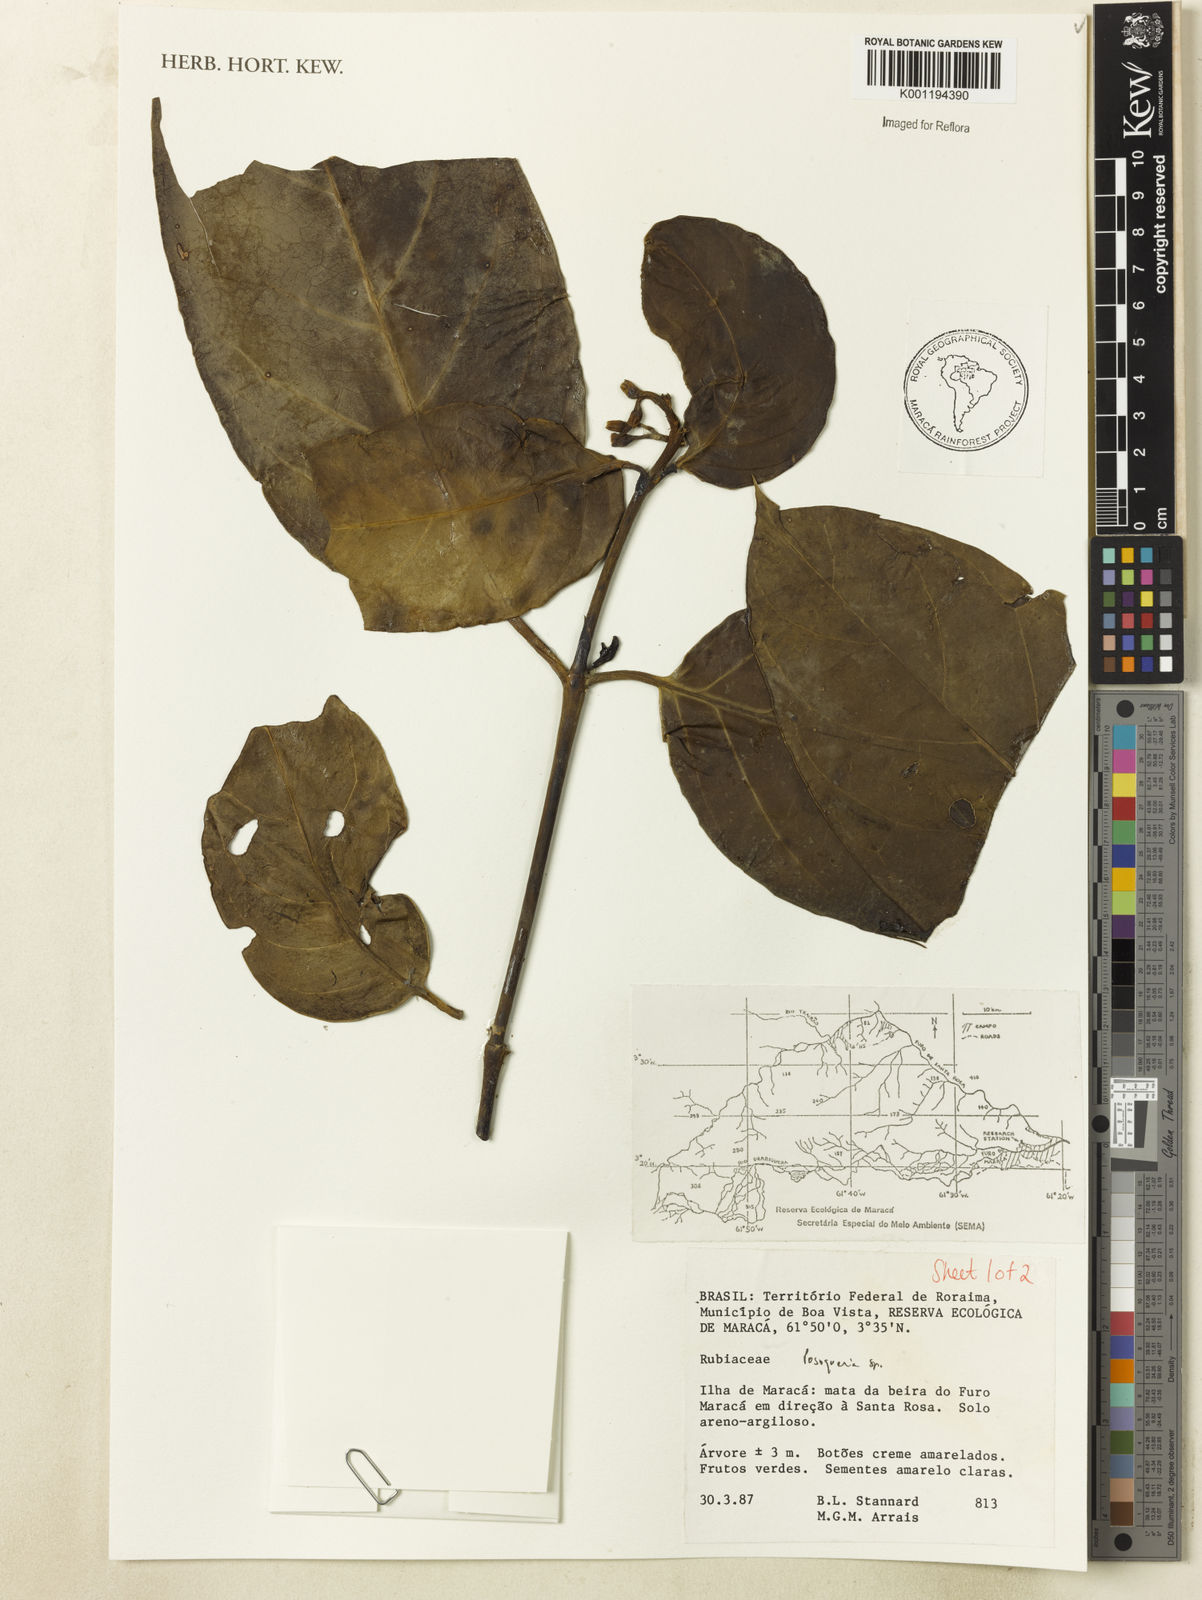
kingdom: Plantae
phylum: Tracheophyta
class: Magnoliopsida
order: Gentianales
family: Rubiaceae
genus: Posoqueria
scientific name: Posoqueria
